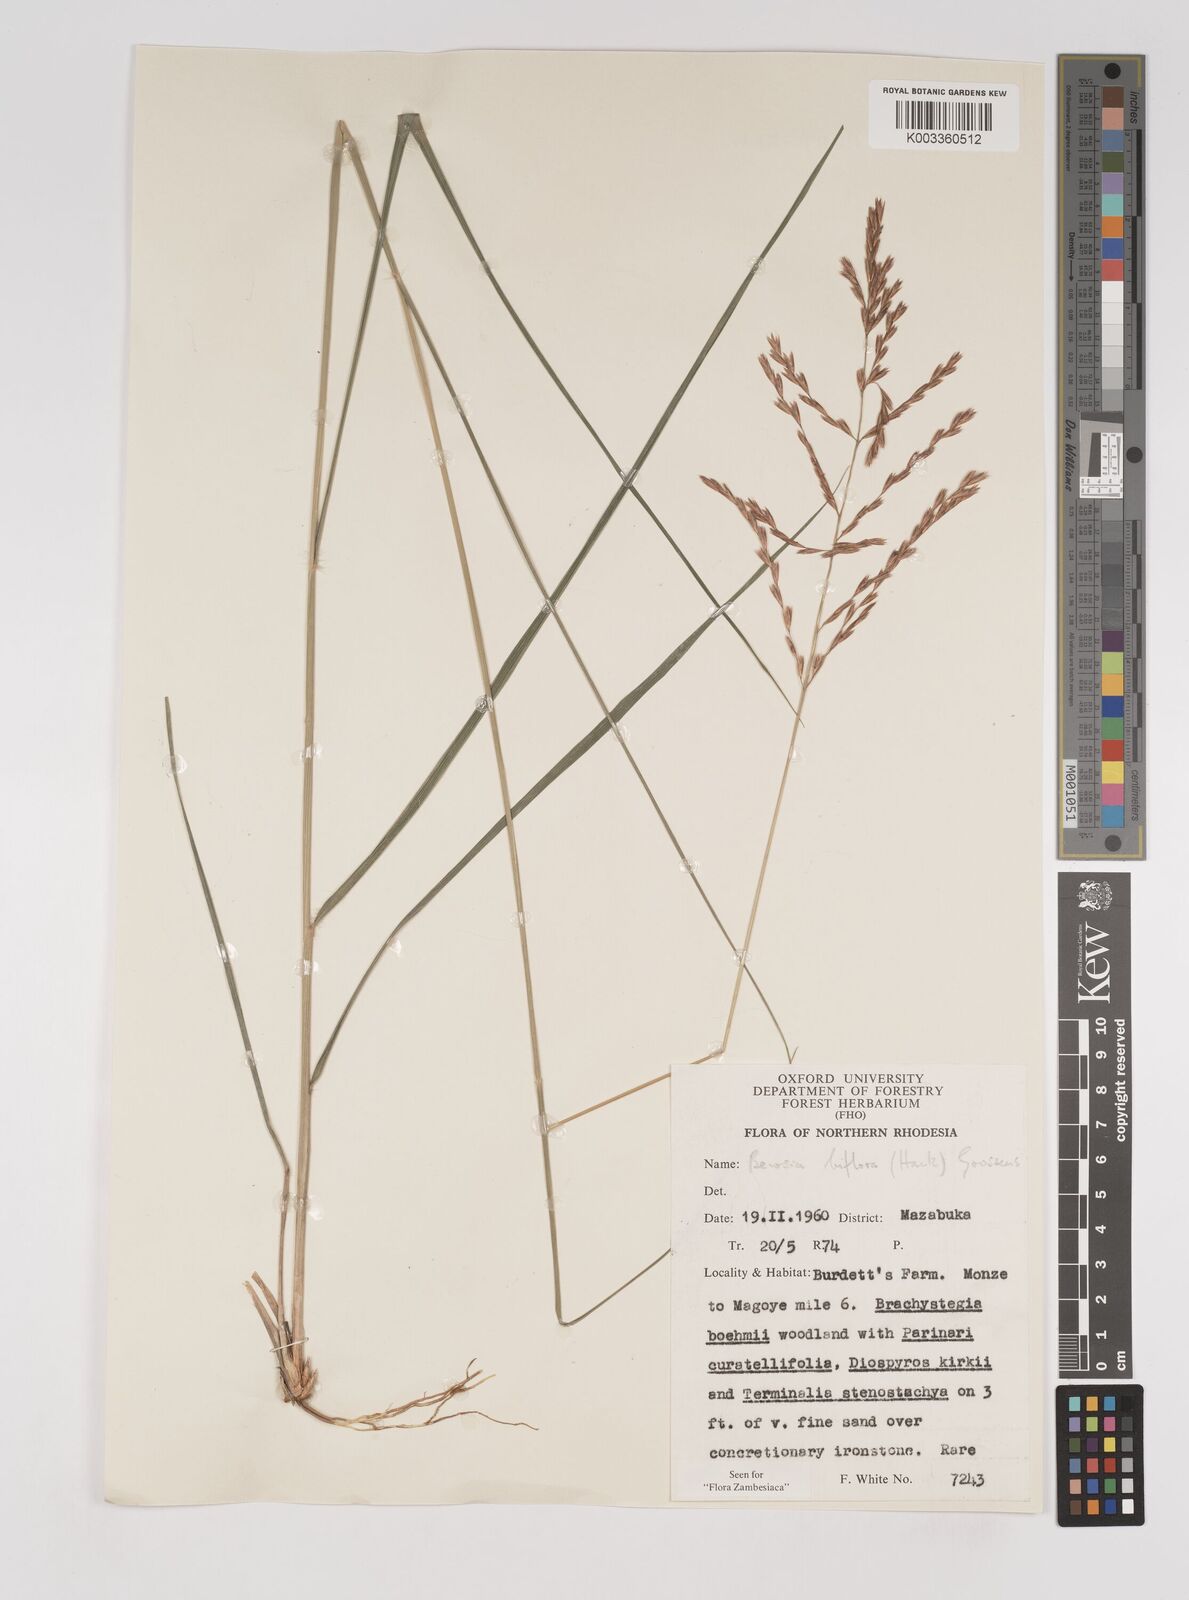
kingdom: Plantae
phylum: Tracheophyta
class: Liliopsida
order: Poales
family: Poaceae
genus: Bewsia
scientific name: Bewsia biflora
